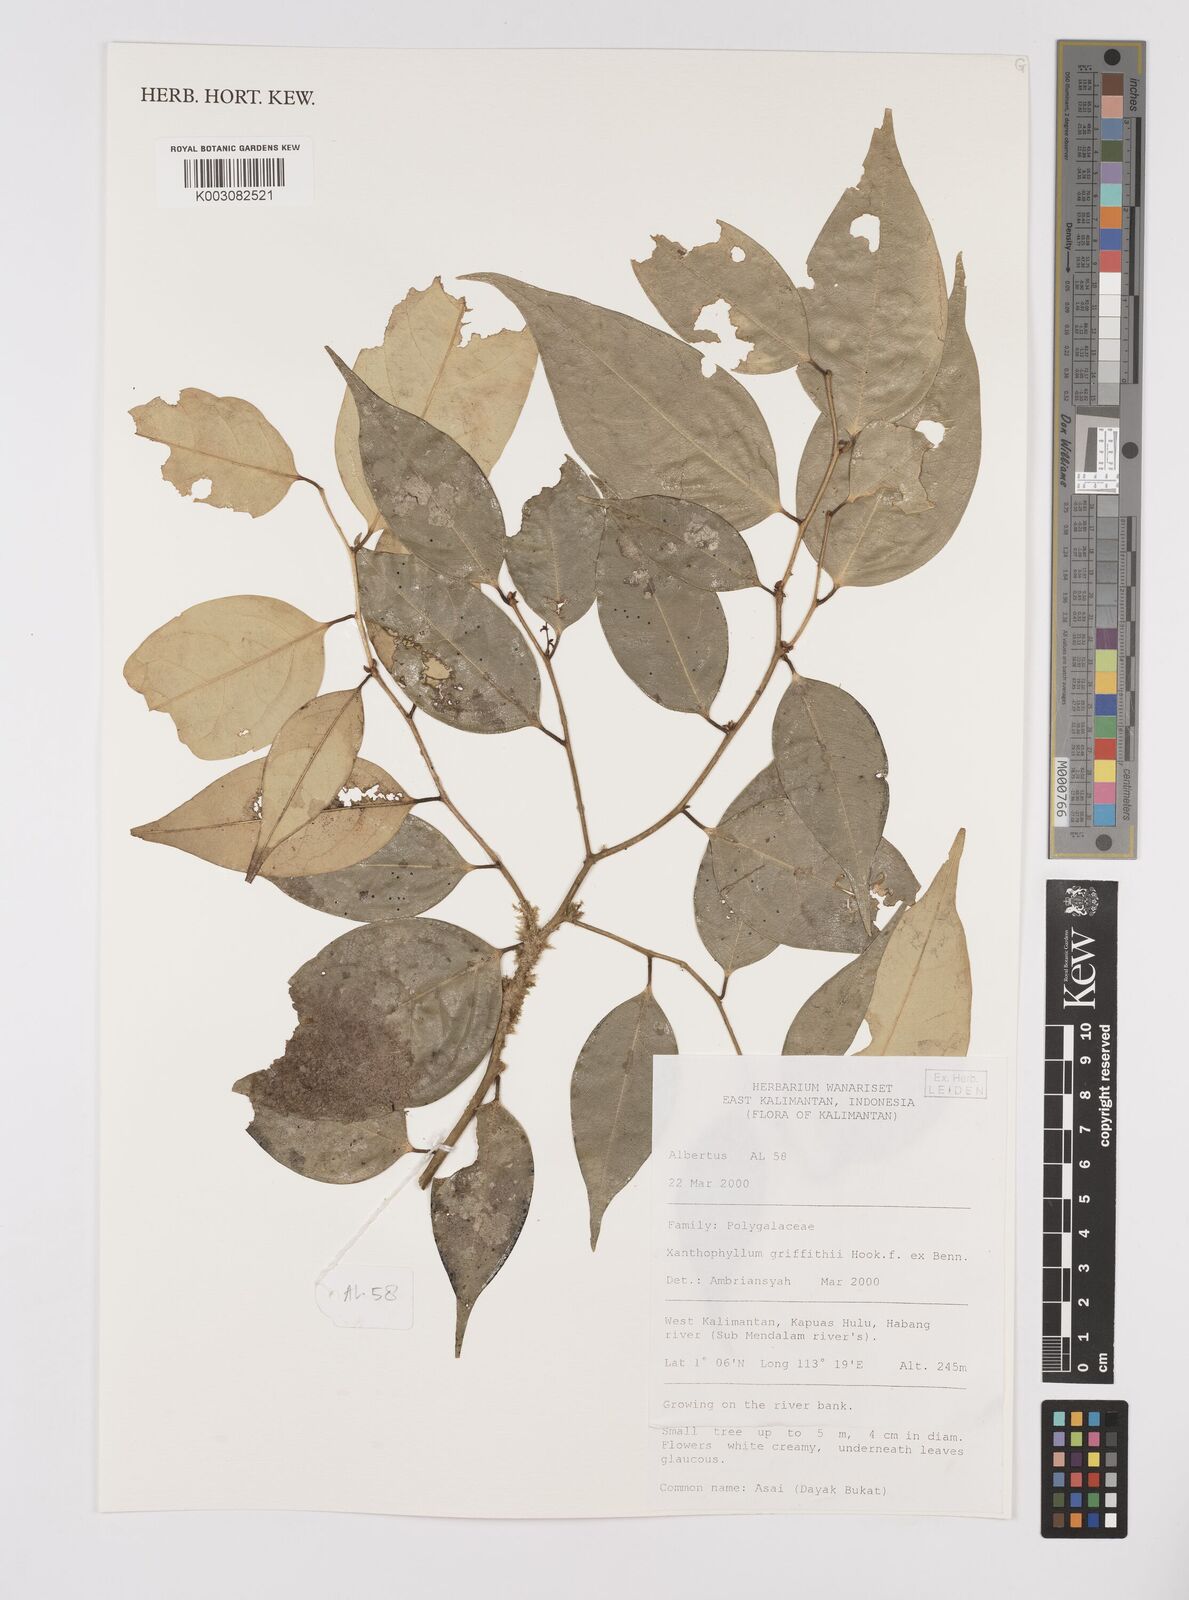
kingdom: Plantae
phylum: Tracheophyta
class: Magnoliopsida
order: Fabales
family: Polygalaceae
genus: Xanthophyllum
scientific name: Xanthophyllum griffithii
